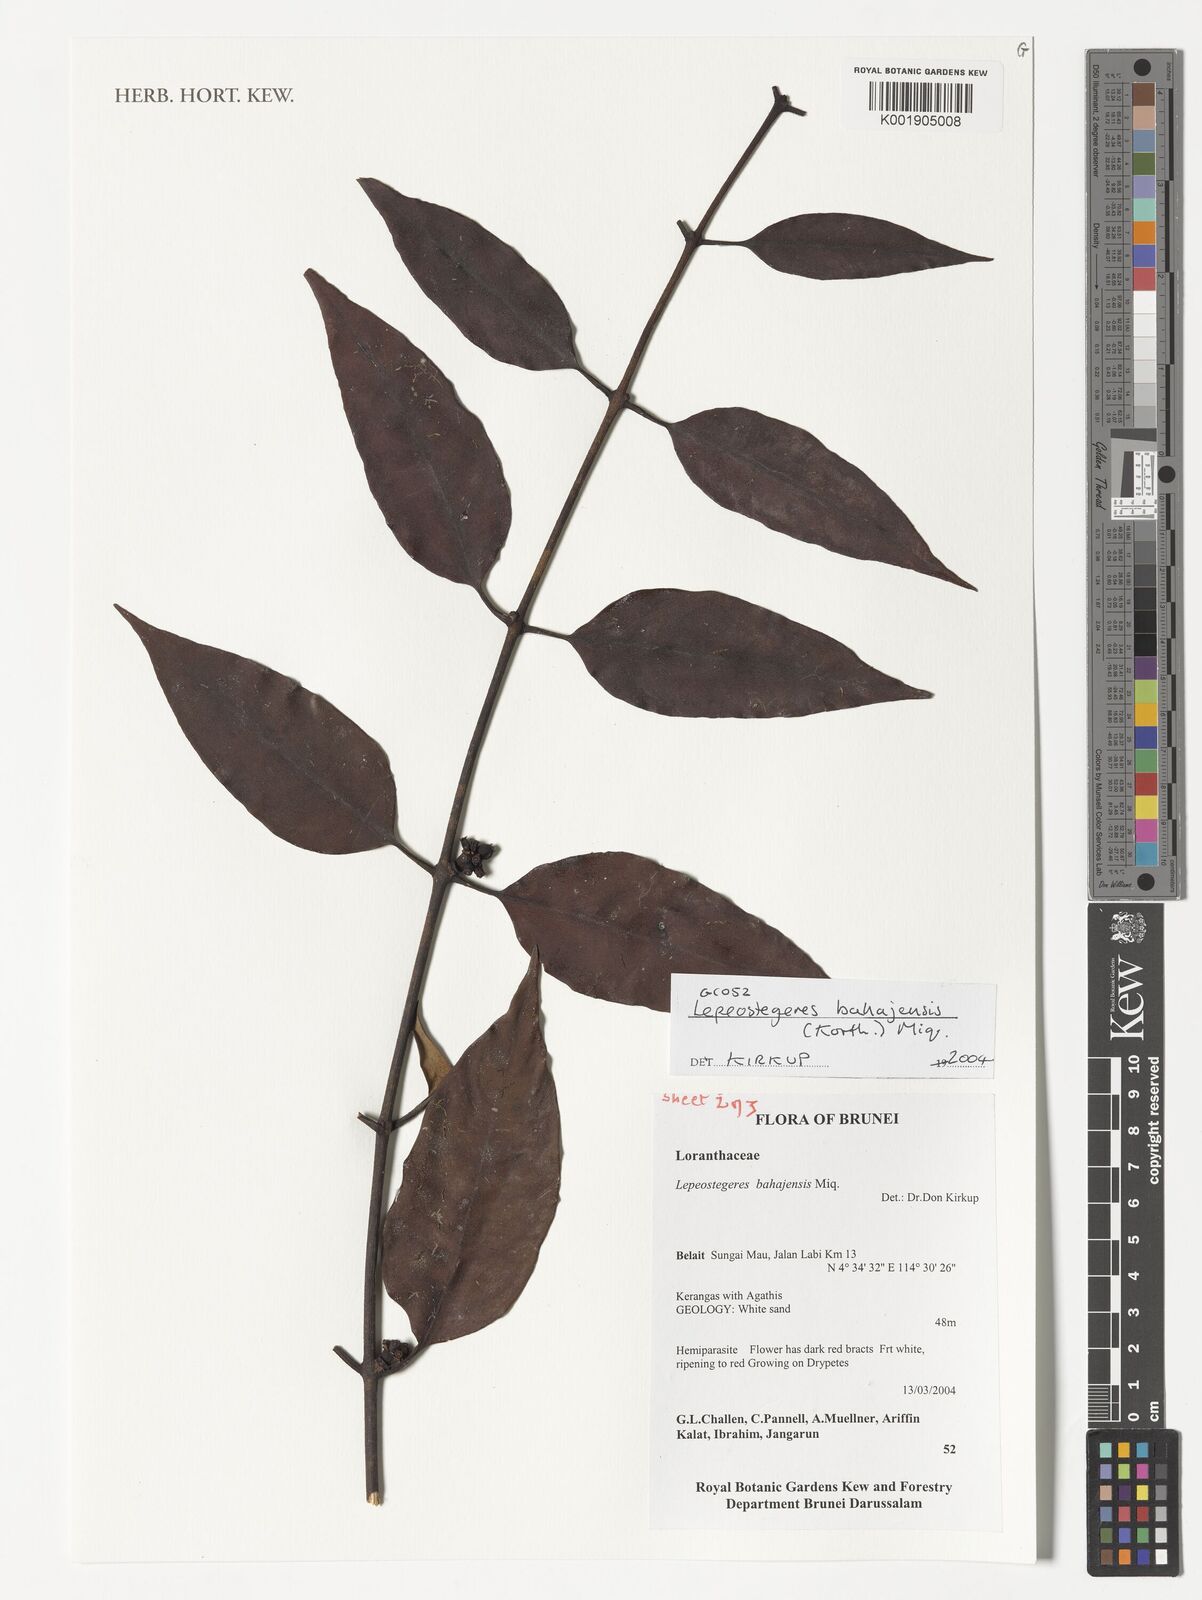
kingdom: Plantae
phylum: Tracheophyta
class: Magnoliopsida
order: Santalales
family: Loranthaceae
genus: Lepeostegeres
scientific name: Lepeostegeres bahajensis
